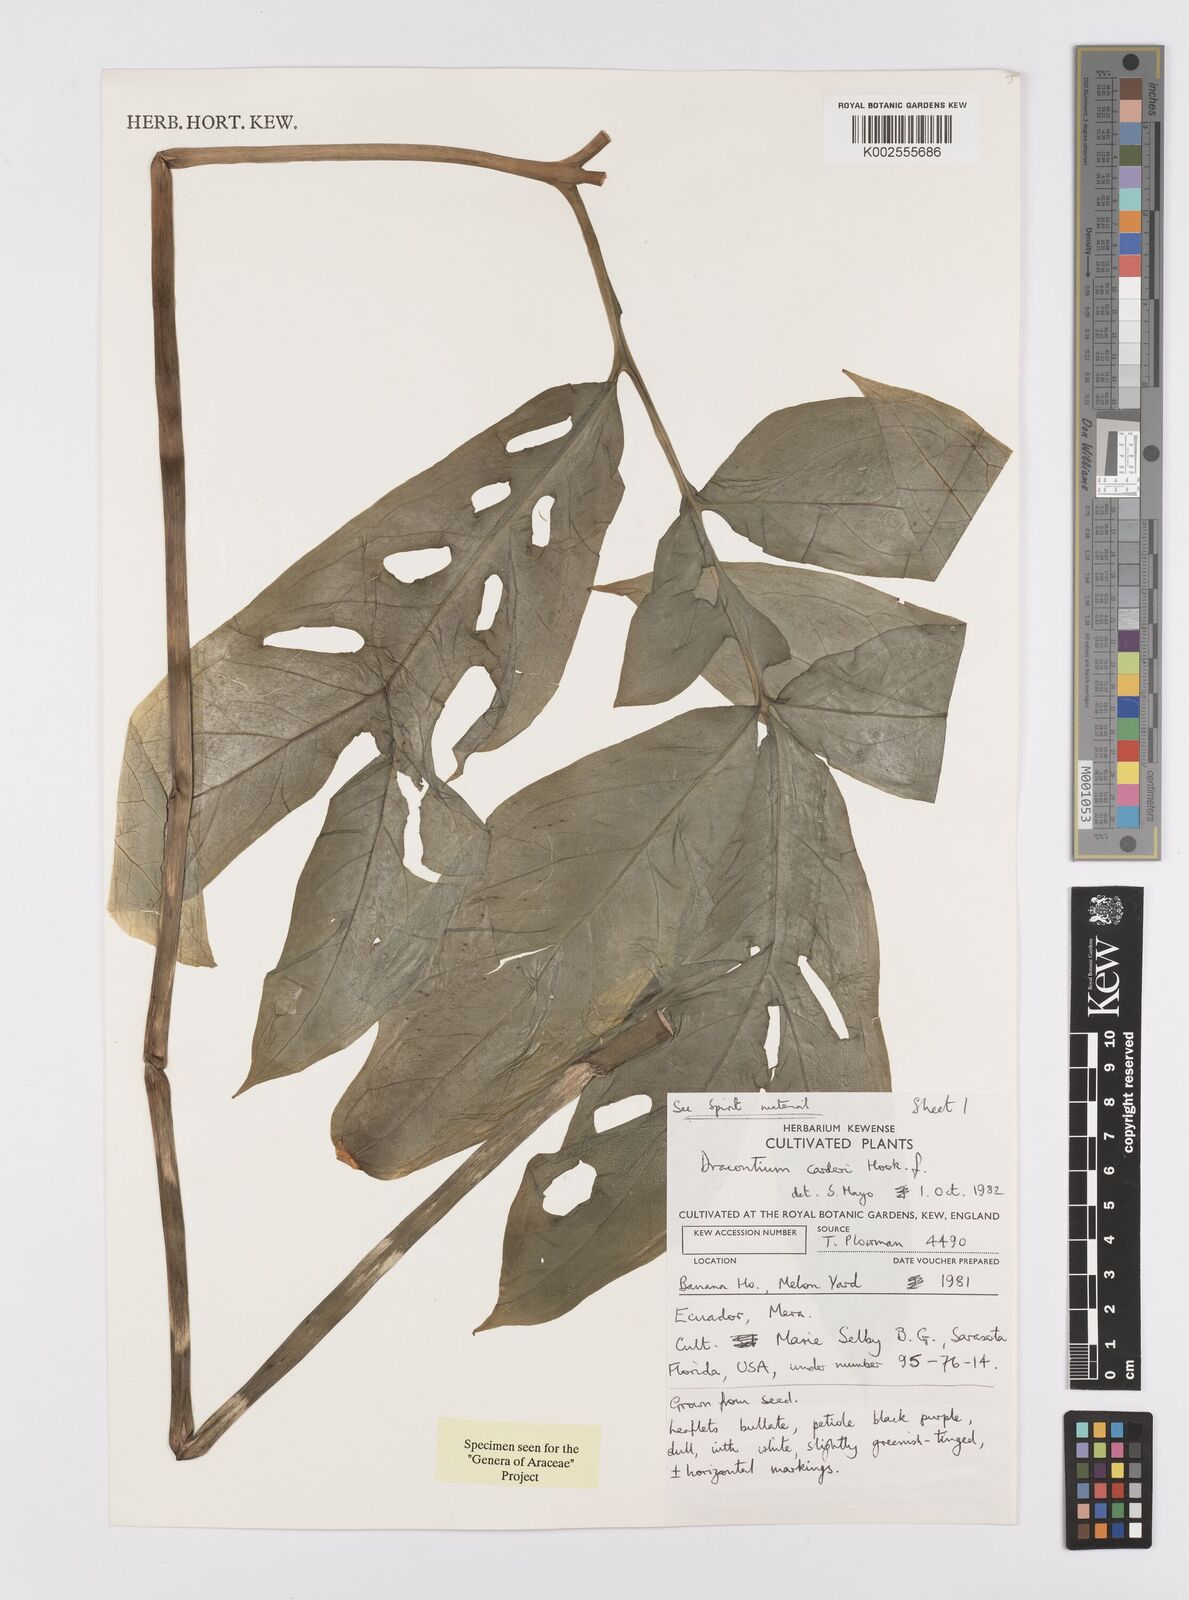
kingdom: Plantae
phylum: Tracheophyta
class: Liliopsida
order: Alismatales
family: Araceae
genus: Dracontium
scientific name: Dracontium spruceanum
